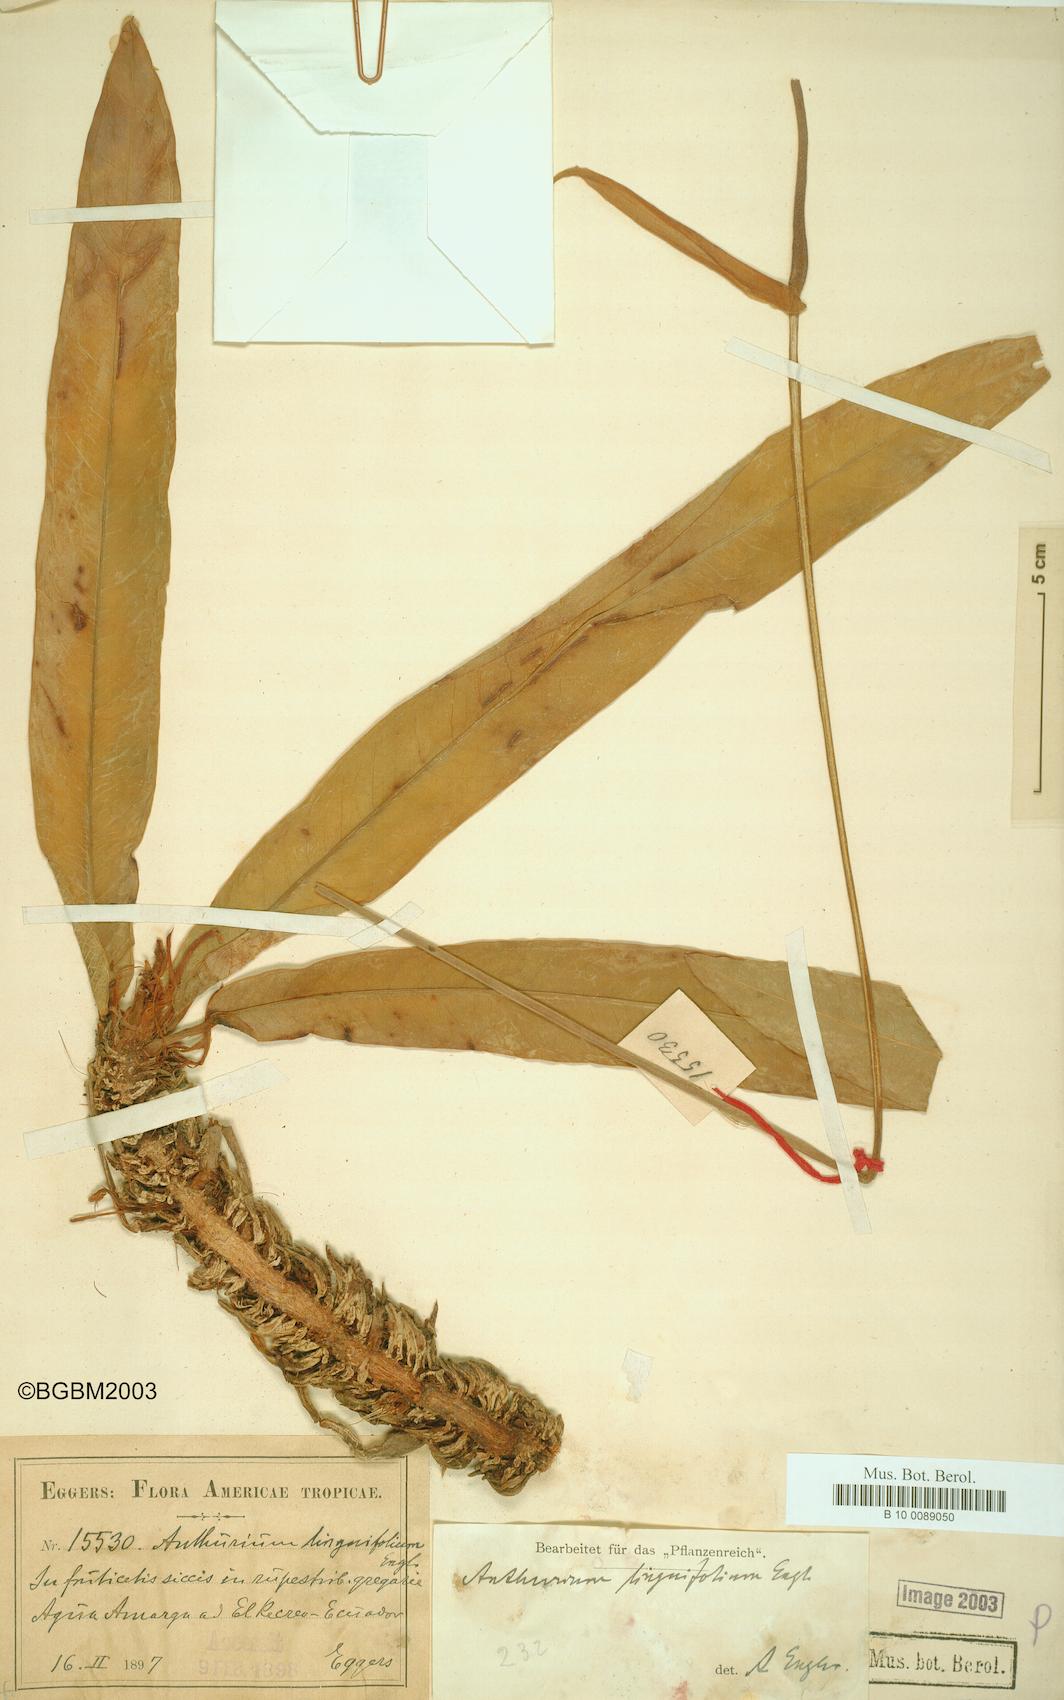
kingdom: Plantae
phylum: Tracheophyta
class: Liliopsida
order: Alismatales
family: Araceae
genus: Anthurium
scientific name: Anthurium linguifolium
